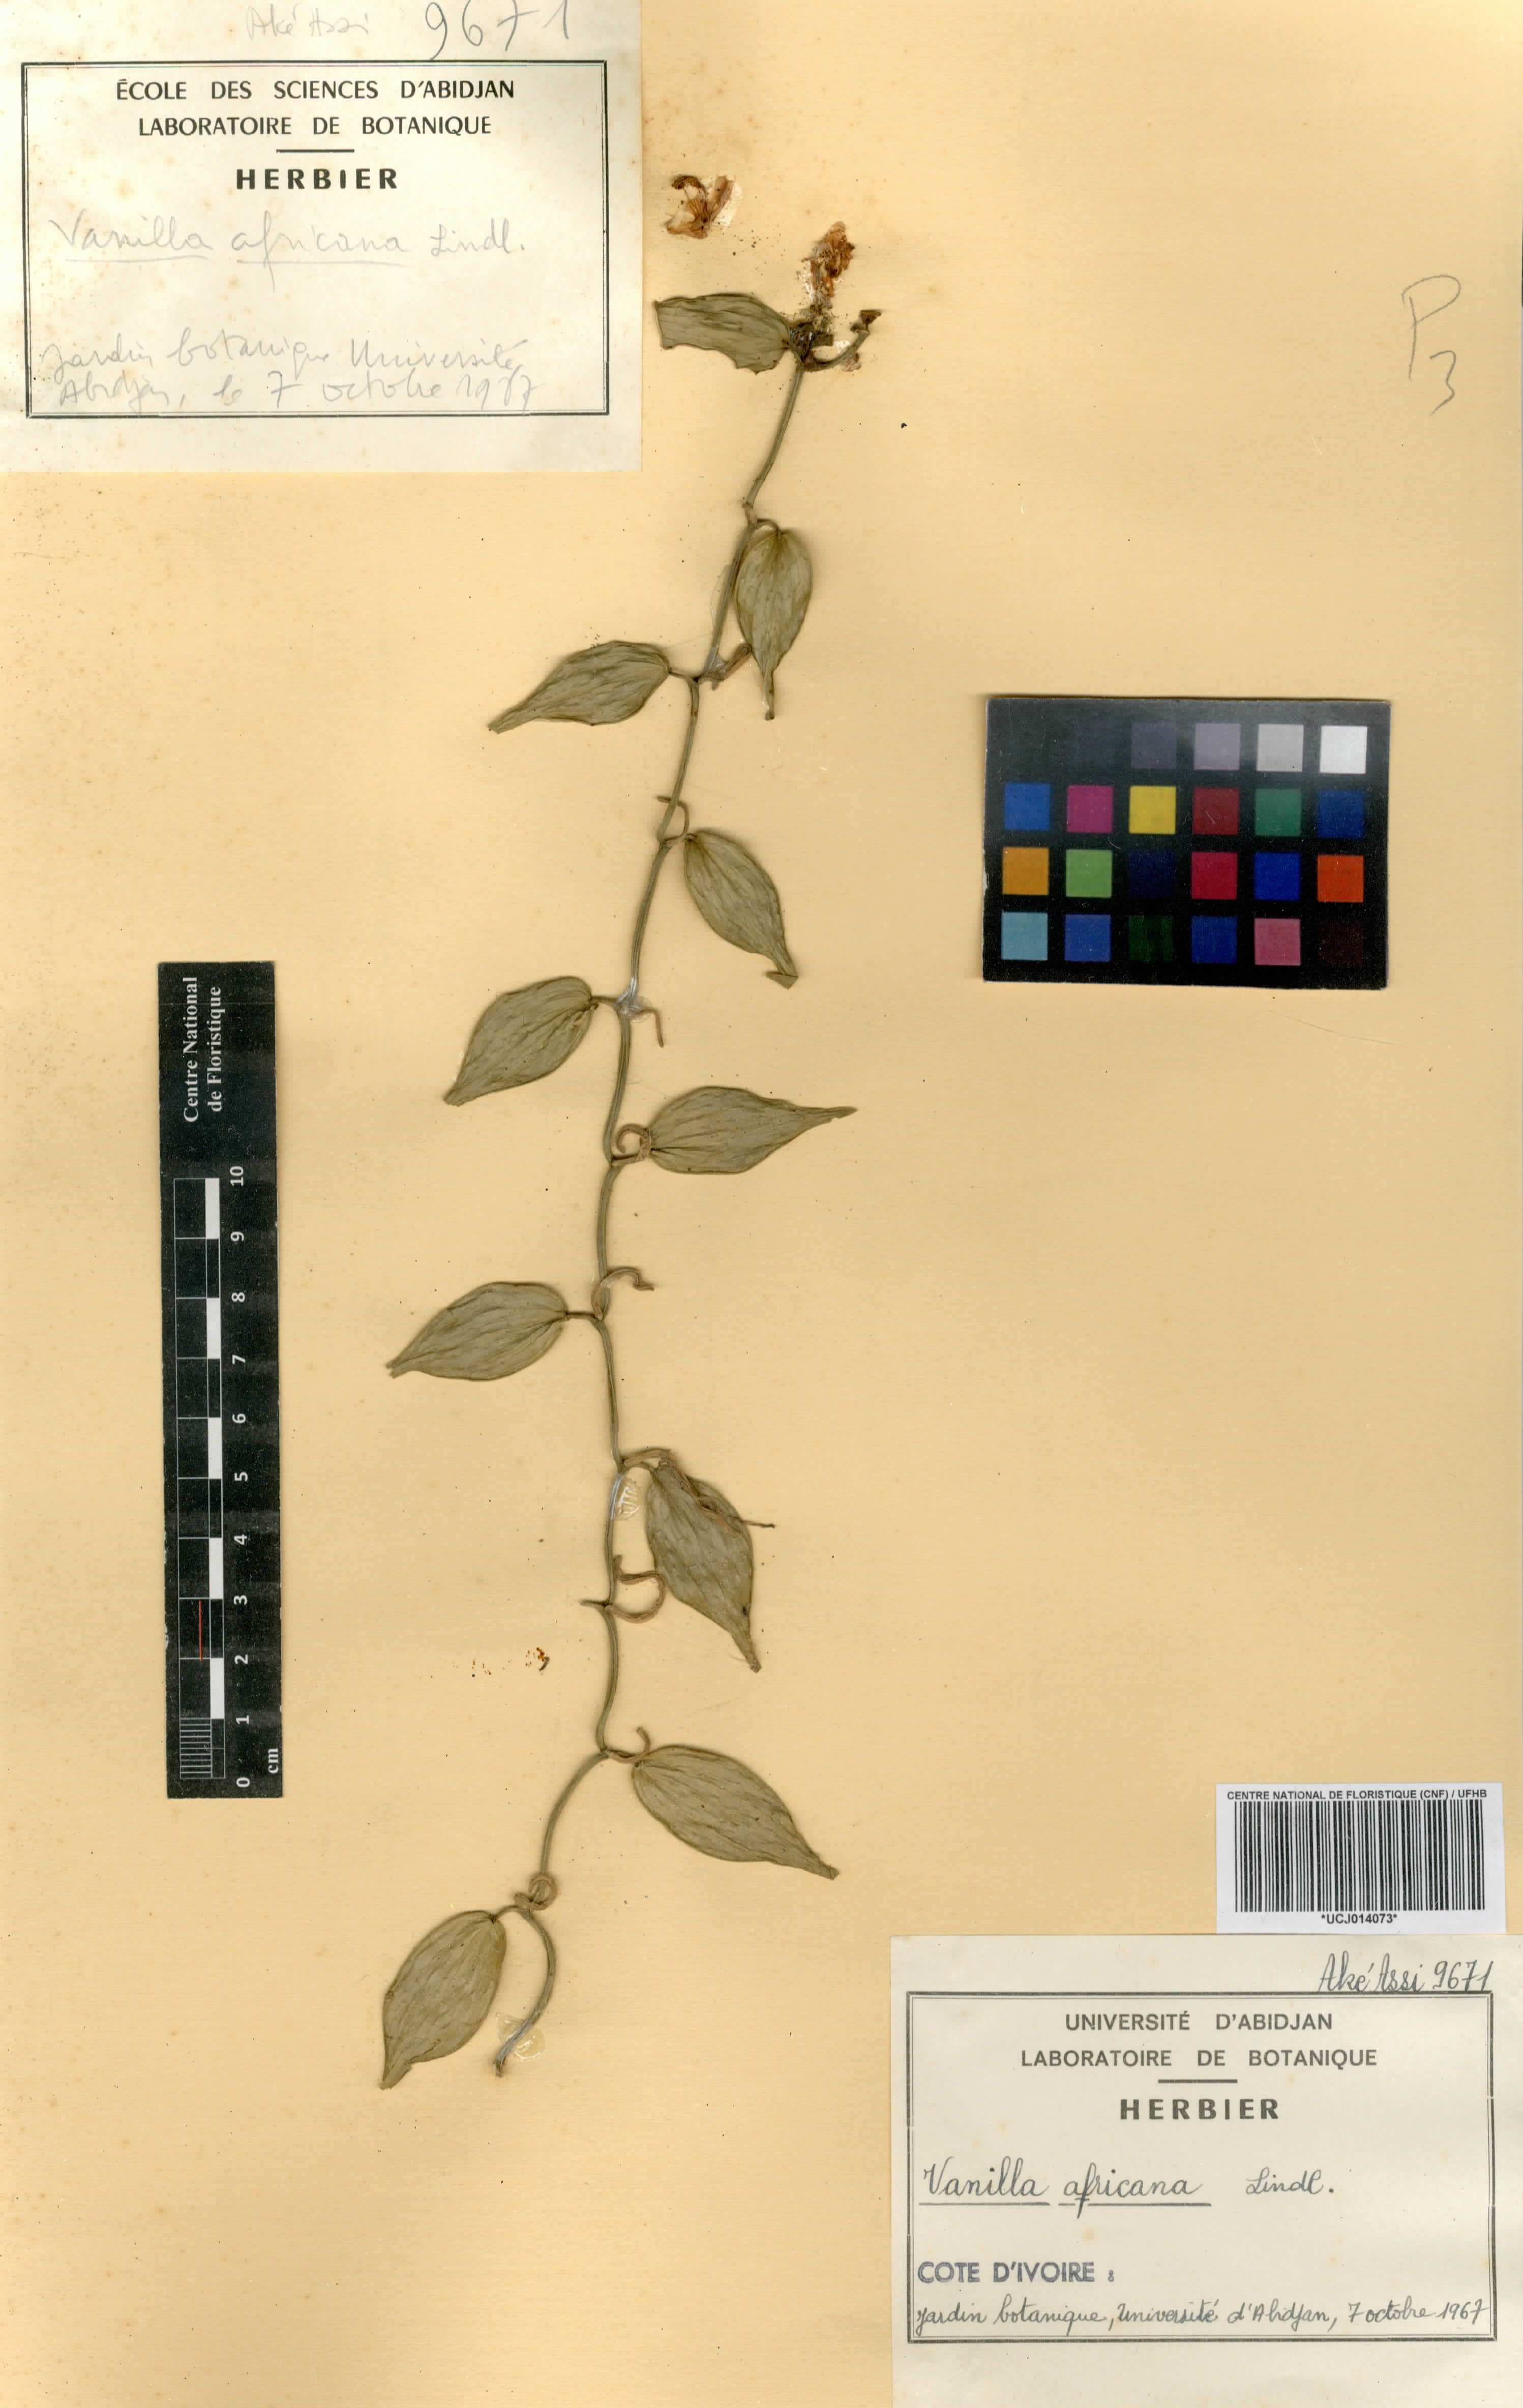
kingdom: Plantae
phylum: Tracheophyta
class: Liliopsida
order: Asparagales
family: Orchidaceae
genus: Vanilla
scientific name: Vanilla africana
